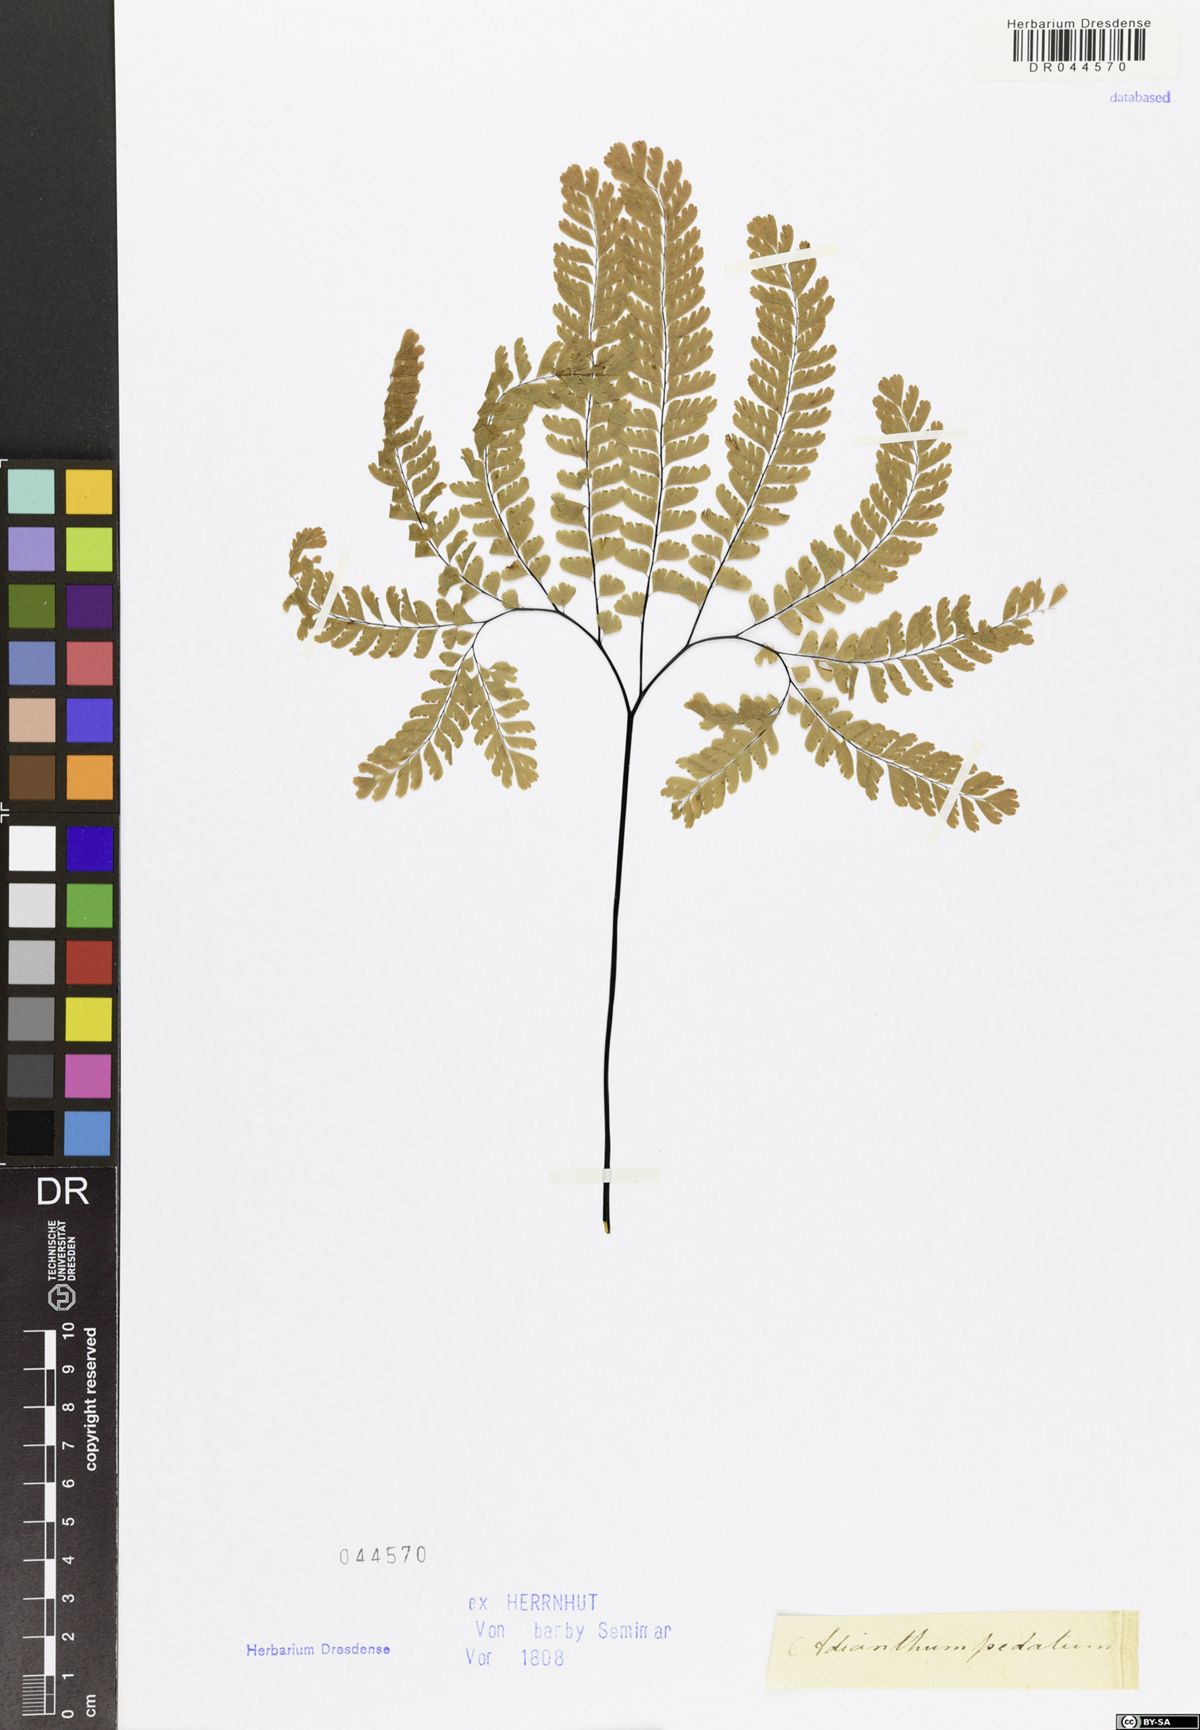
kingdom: Plantae
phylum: Tracheophyta
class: Polypodiopsida
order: Polypodiales
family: Pteridaceae
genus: Adiantum
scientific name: Adiantum pedatum
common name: Five-finger fern
